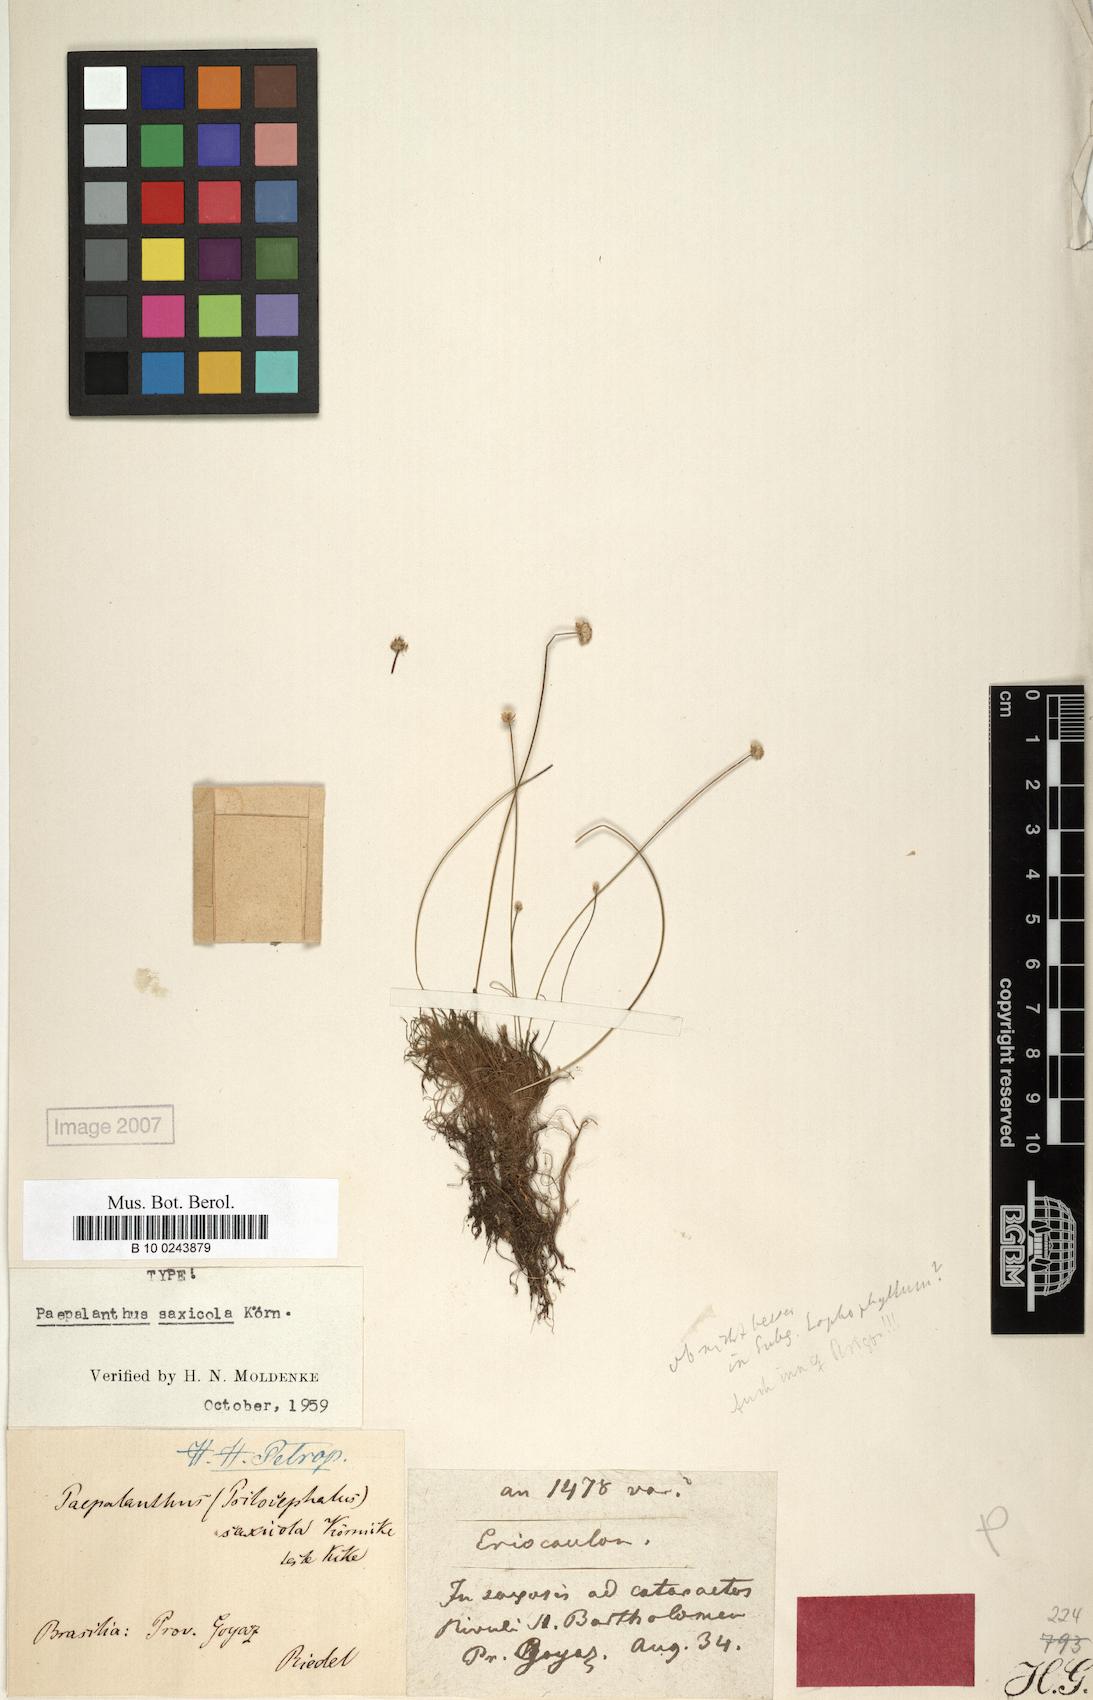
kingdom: Plantae
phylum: Tracheophyta
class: Liliopsida
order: Poales
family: Eriocaulaceae
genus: Syngonanthus
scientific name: Syngonanthus saxicola
